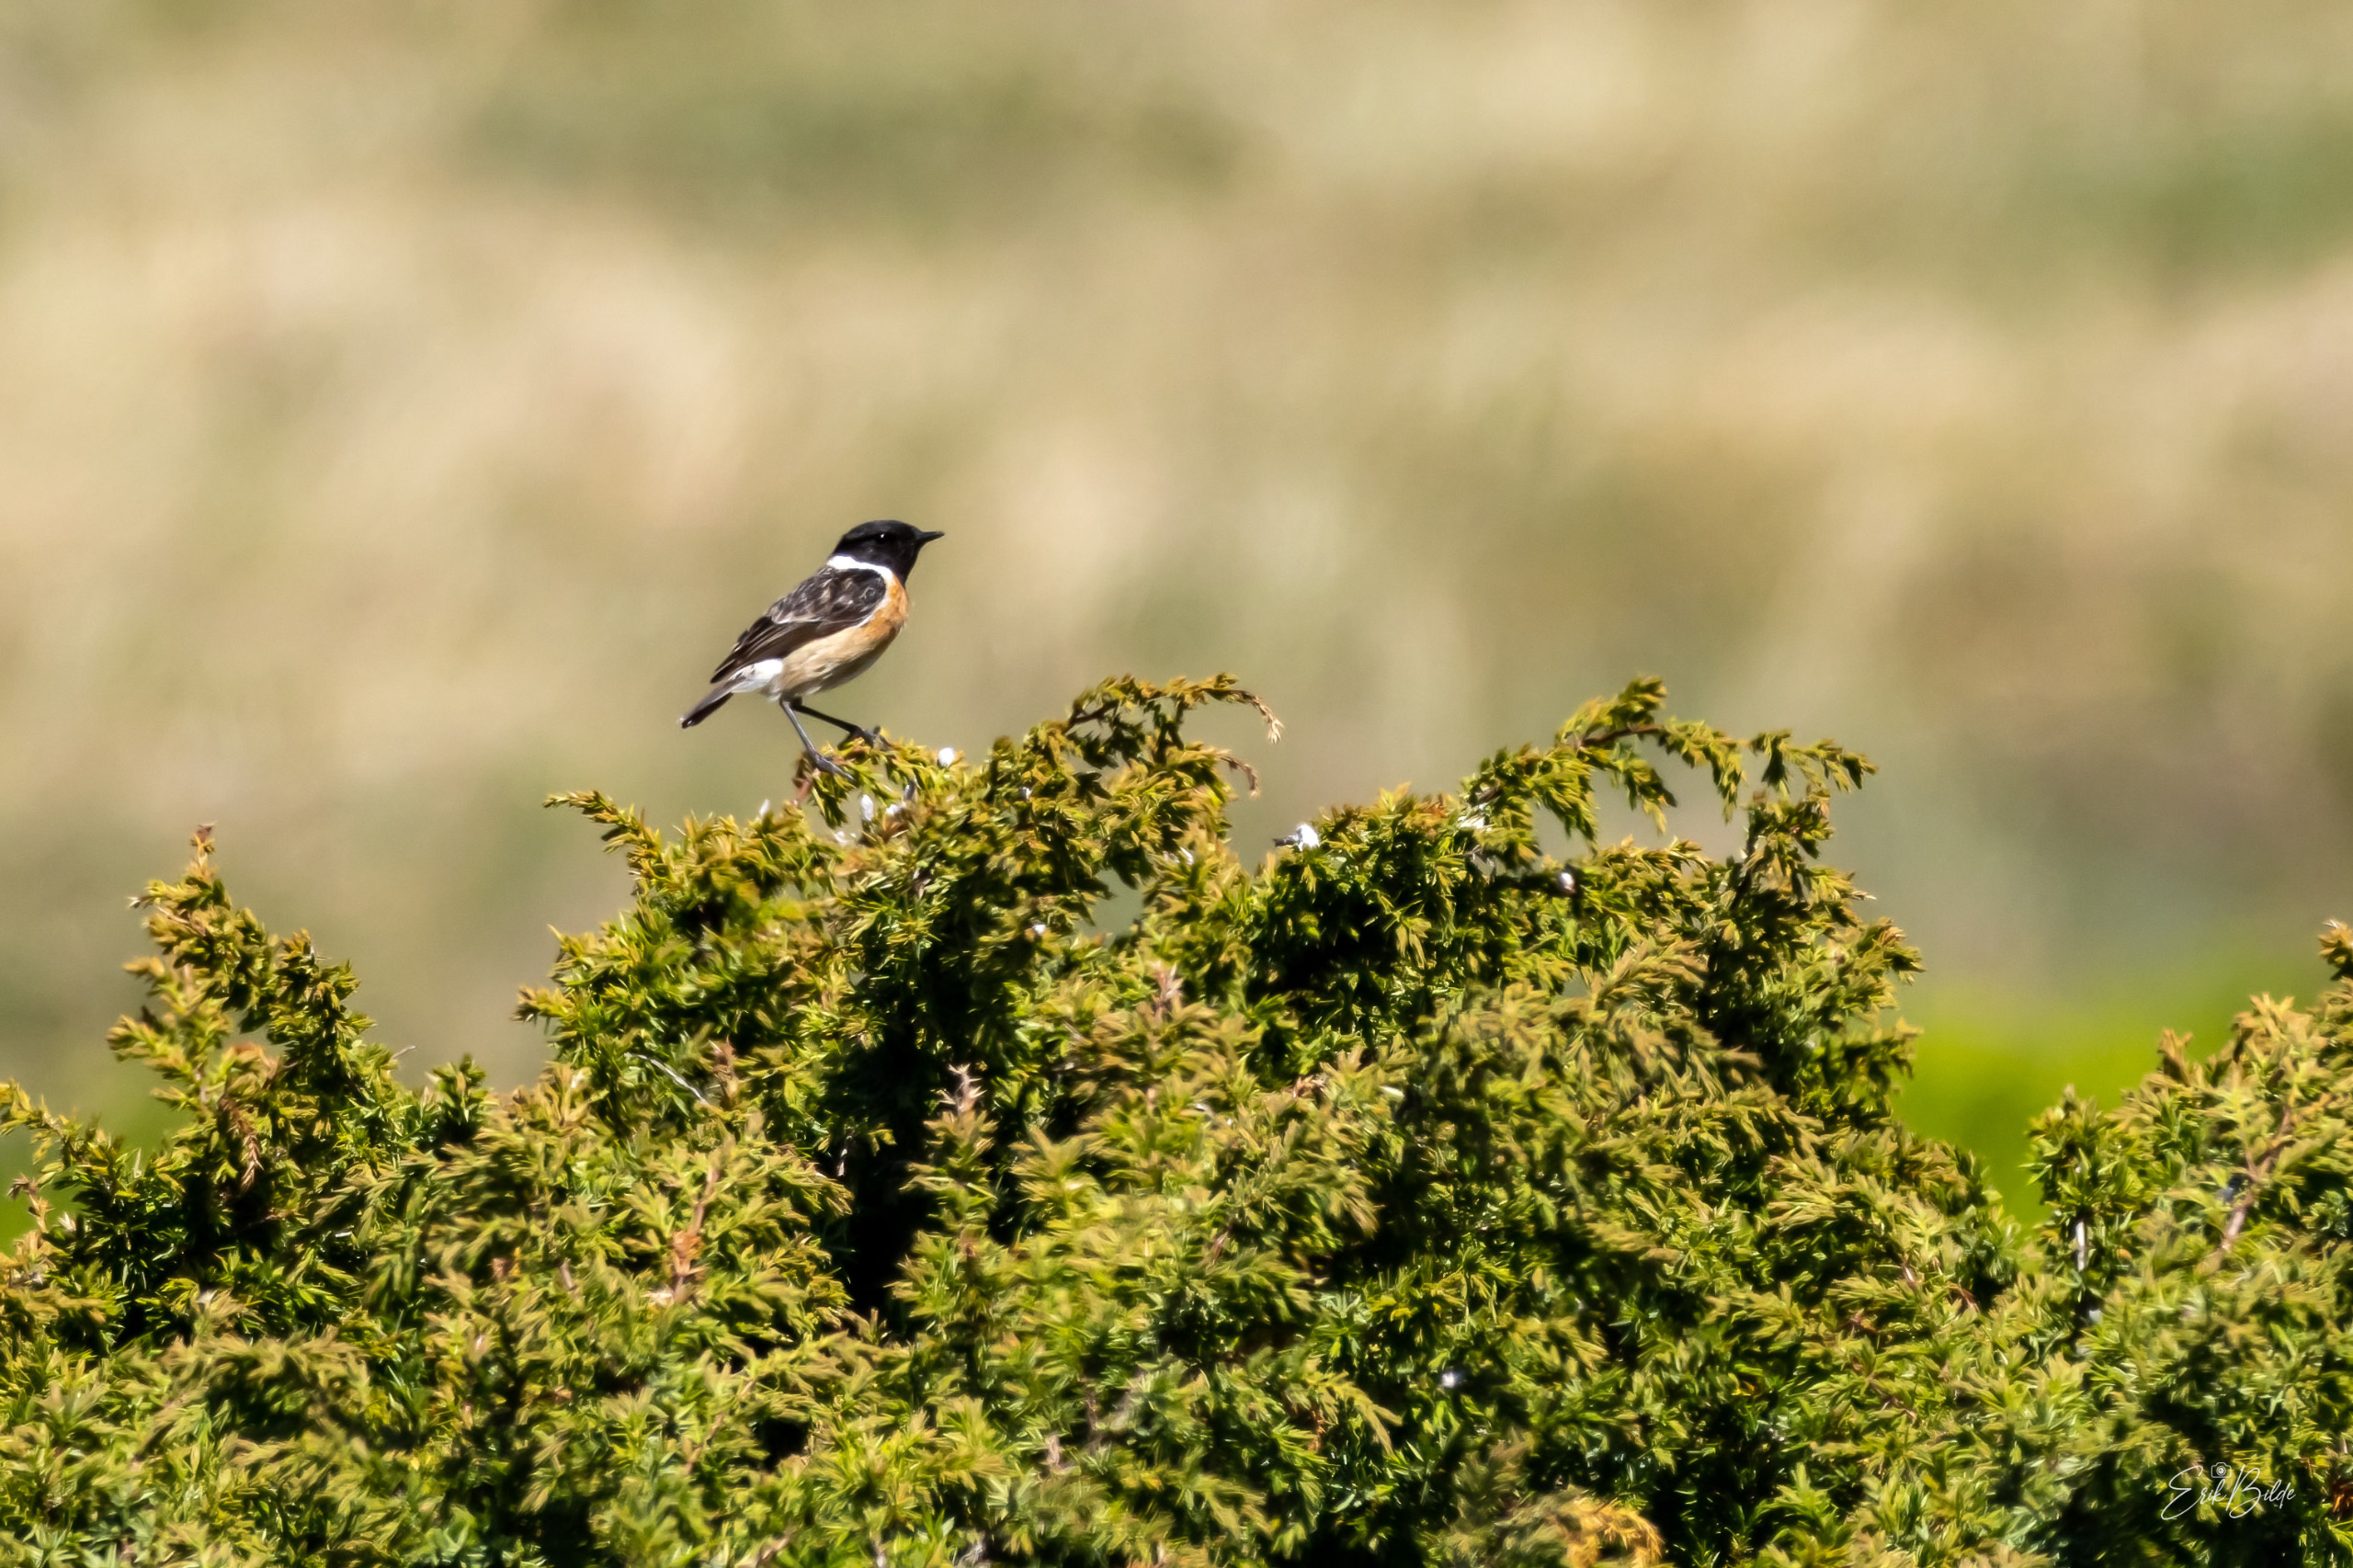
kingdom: Animalia
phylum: Chordata
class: Aves
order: Passeriformes
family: Muscicapidae
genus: Saxicola
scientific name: Saxicola rubicola
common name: Sortstrubet bynkefugl
